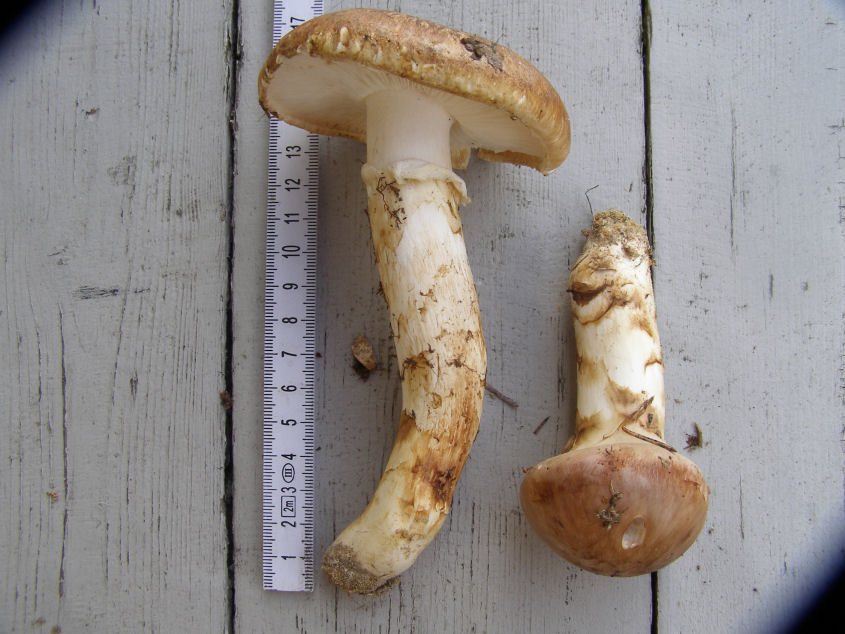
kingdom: Fungi
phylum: Basidiomycota
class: Agaricomycetes
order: Agaricales
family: Tricholomataceae
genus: Tricholoma
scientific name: Tricholoma matsutake
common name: duft-ridderhat
